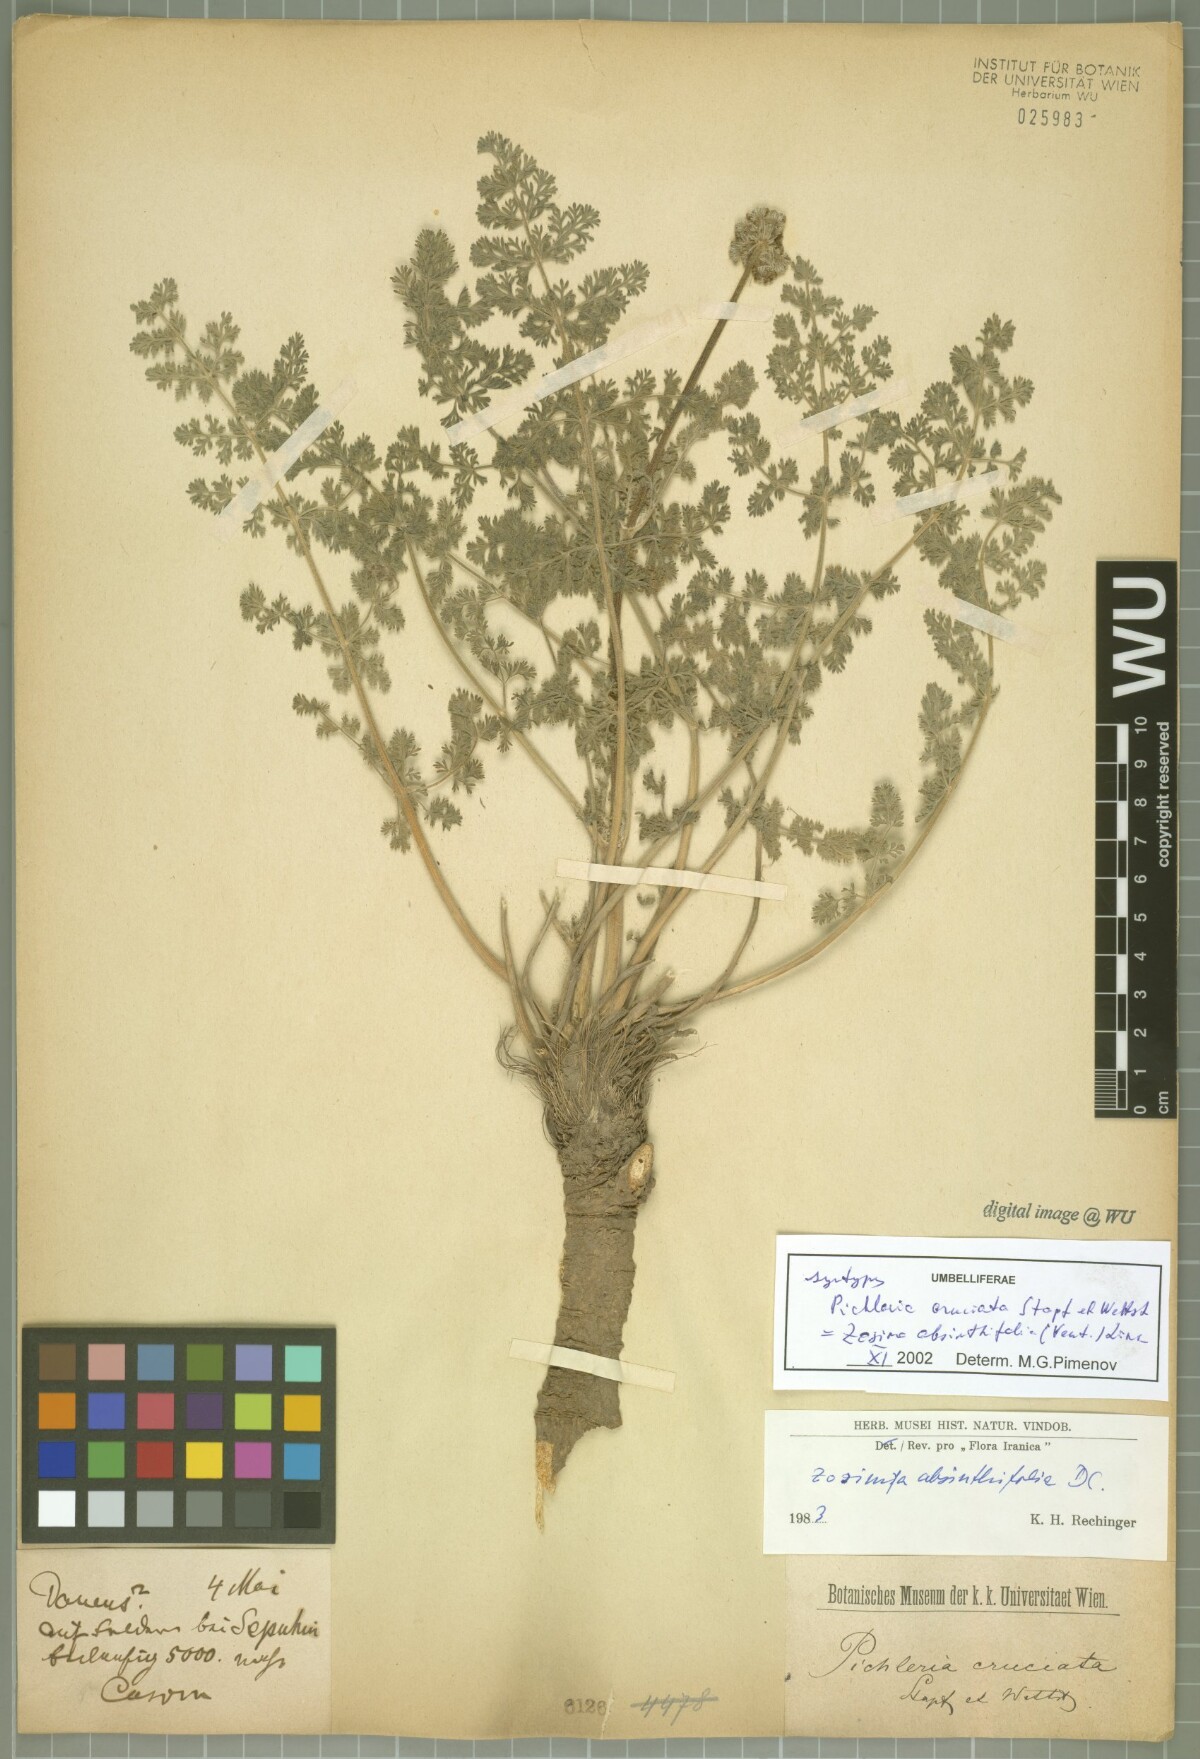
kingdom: Plantae
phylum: Tracheophyta
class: Magnoliopsida
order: Apiales
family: Apiaceae
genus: Zosima
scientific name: Zosima absinthiifolia
